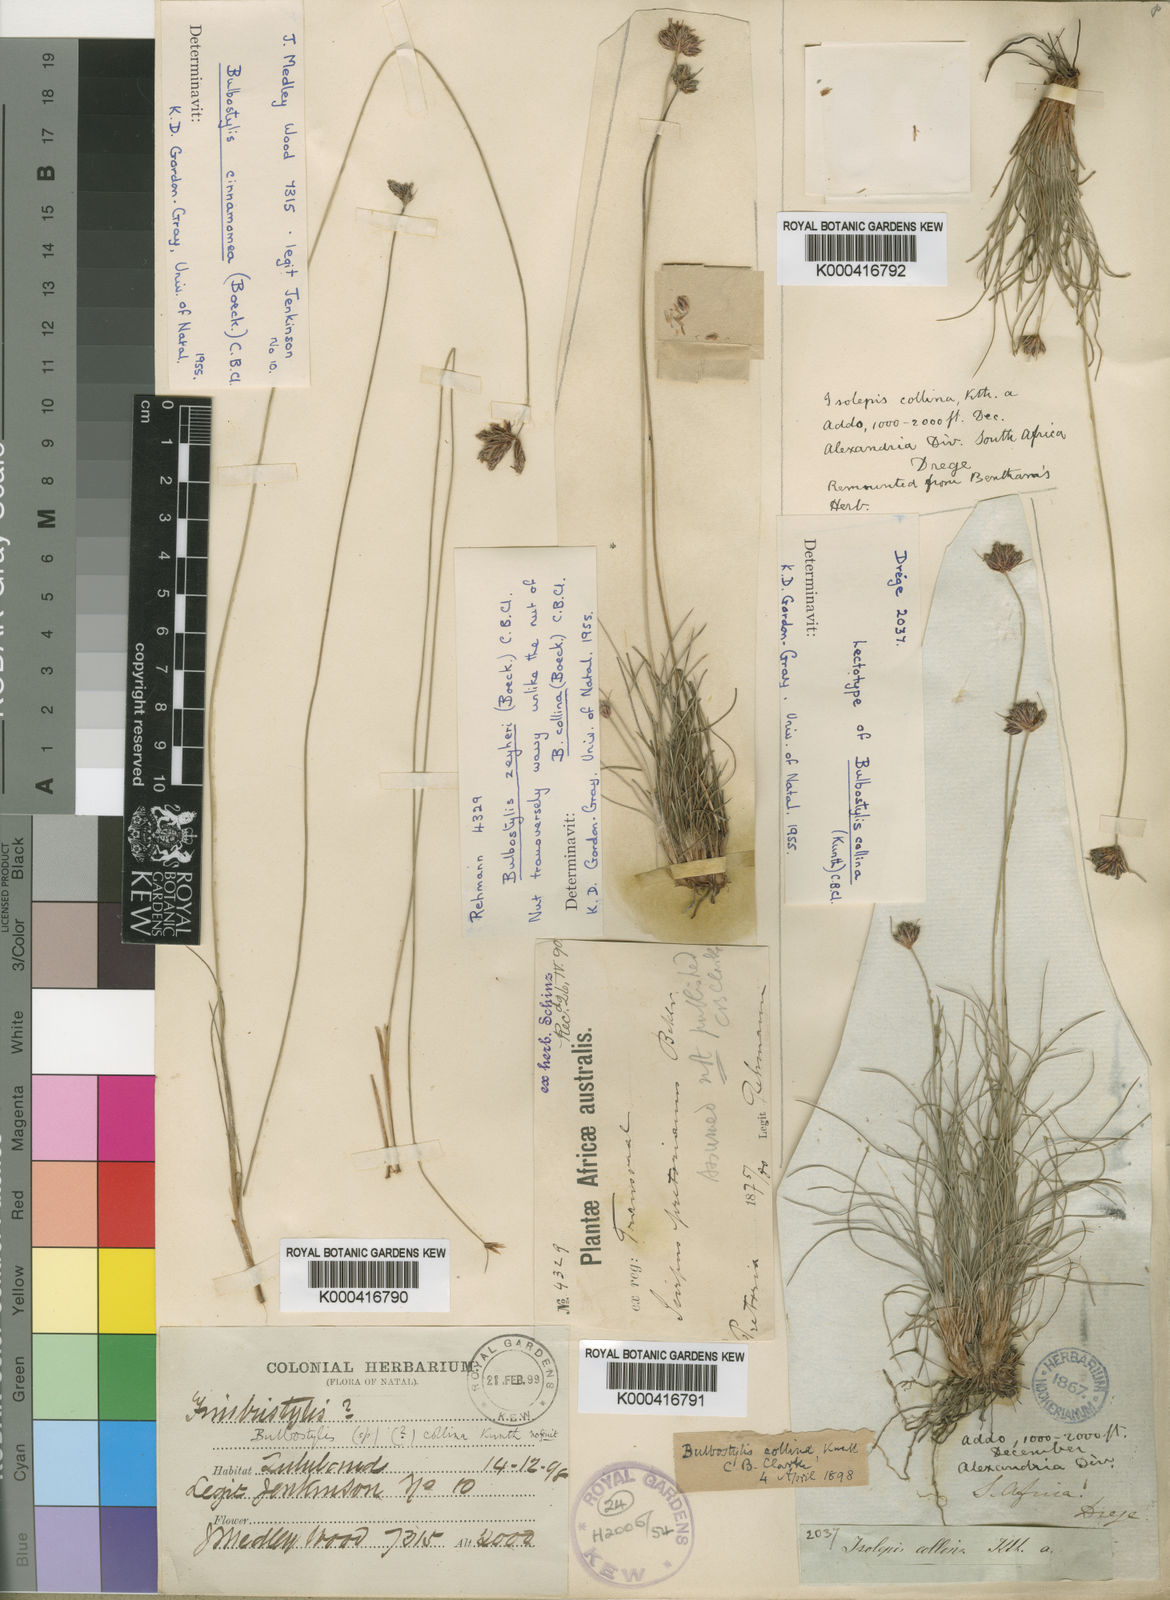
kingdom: Plantae
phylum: Tracheophyta
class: Liliopsida
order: Poales
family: Cyperaceae
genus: Bulbostylis
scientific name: Bulbostylis contexta
